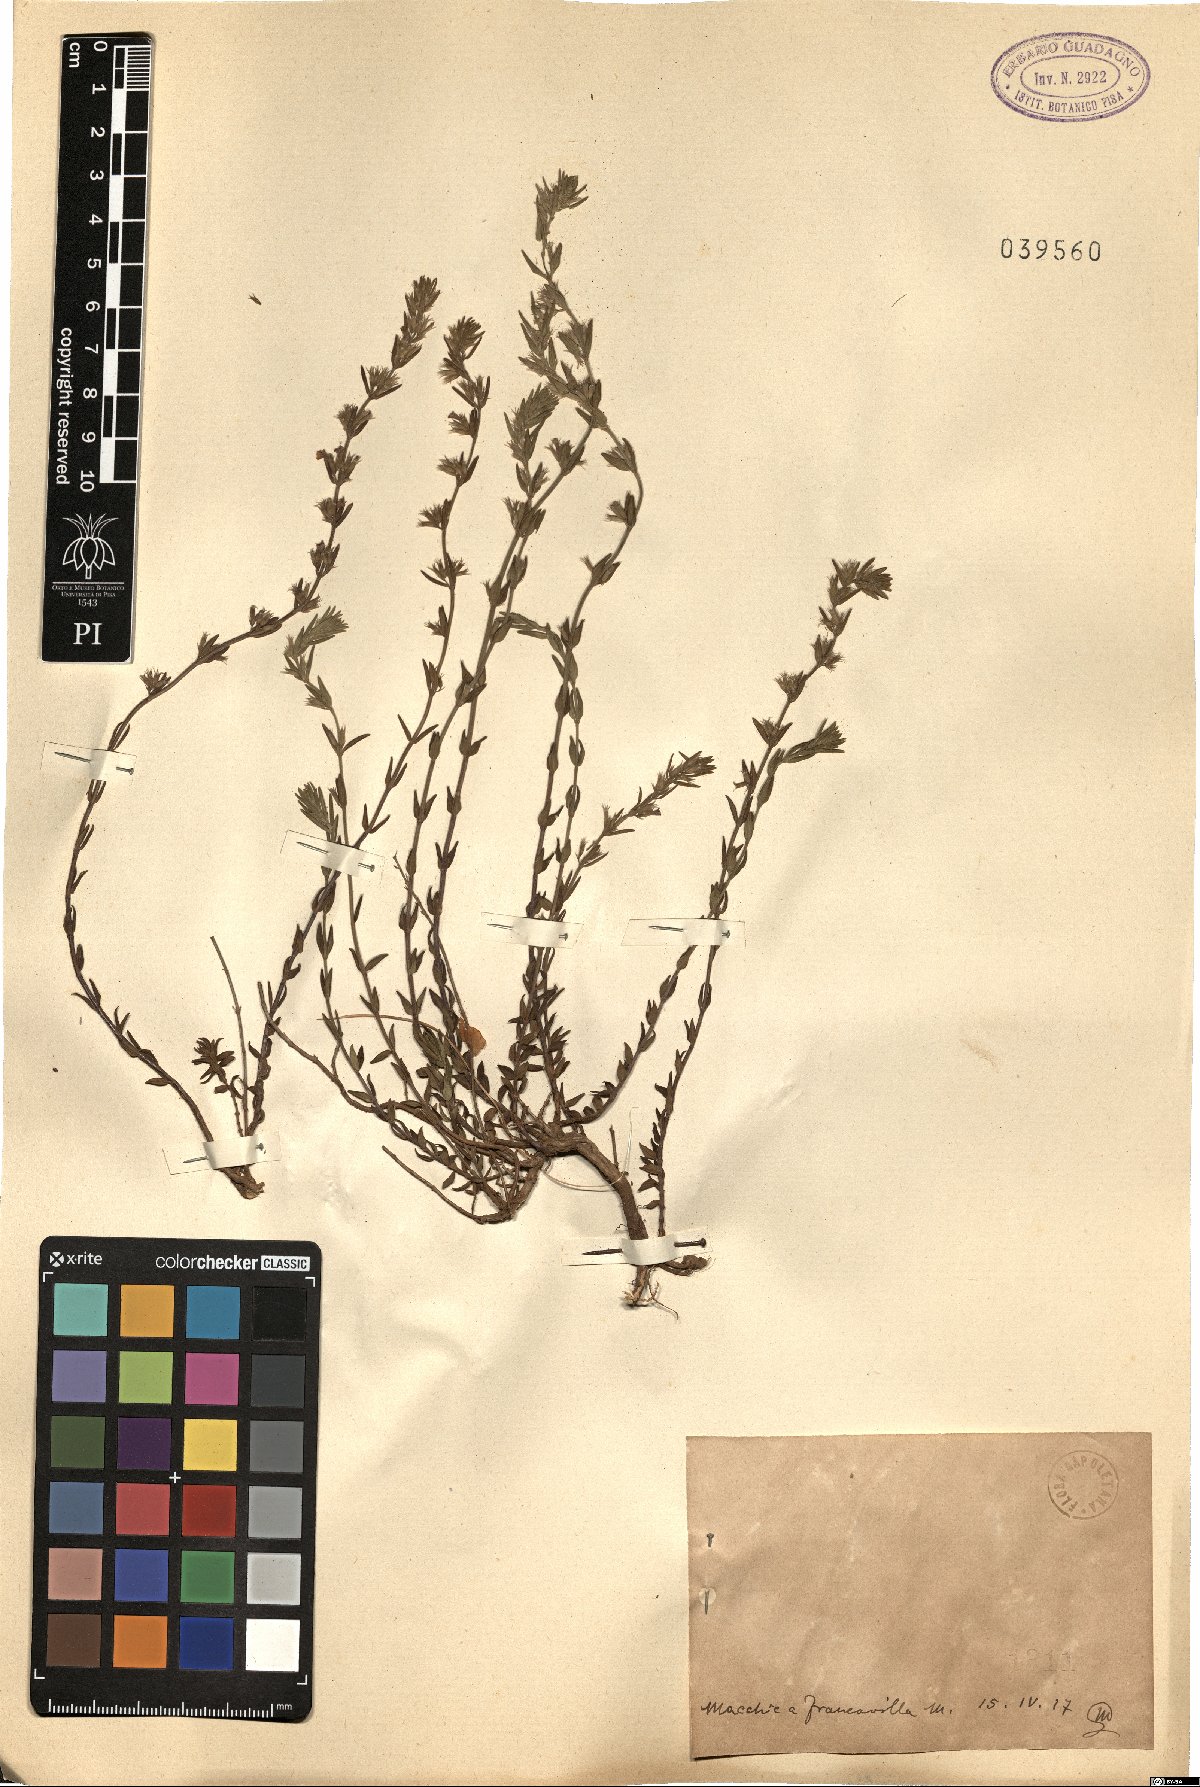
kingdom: Plantae
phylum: Tracheophyta
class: Magnoliopsida
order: Lamiales
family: Lamiaceae
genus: Micromeria
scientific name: Micromeria
